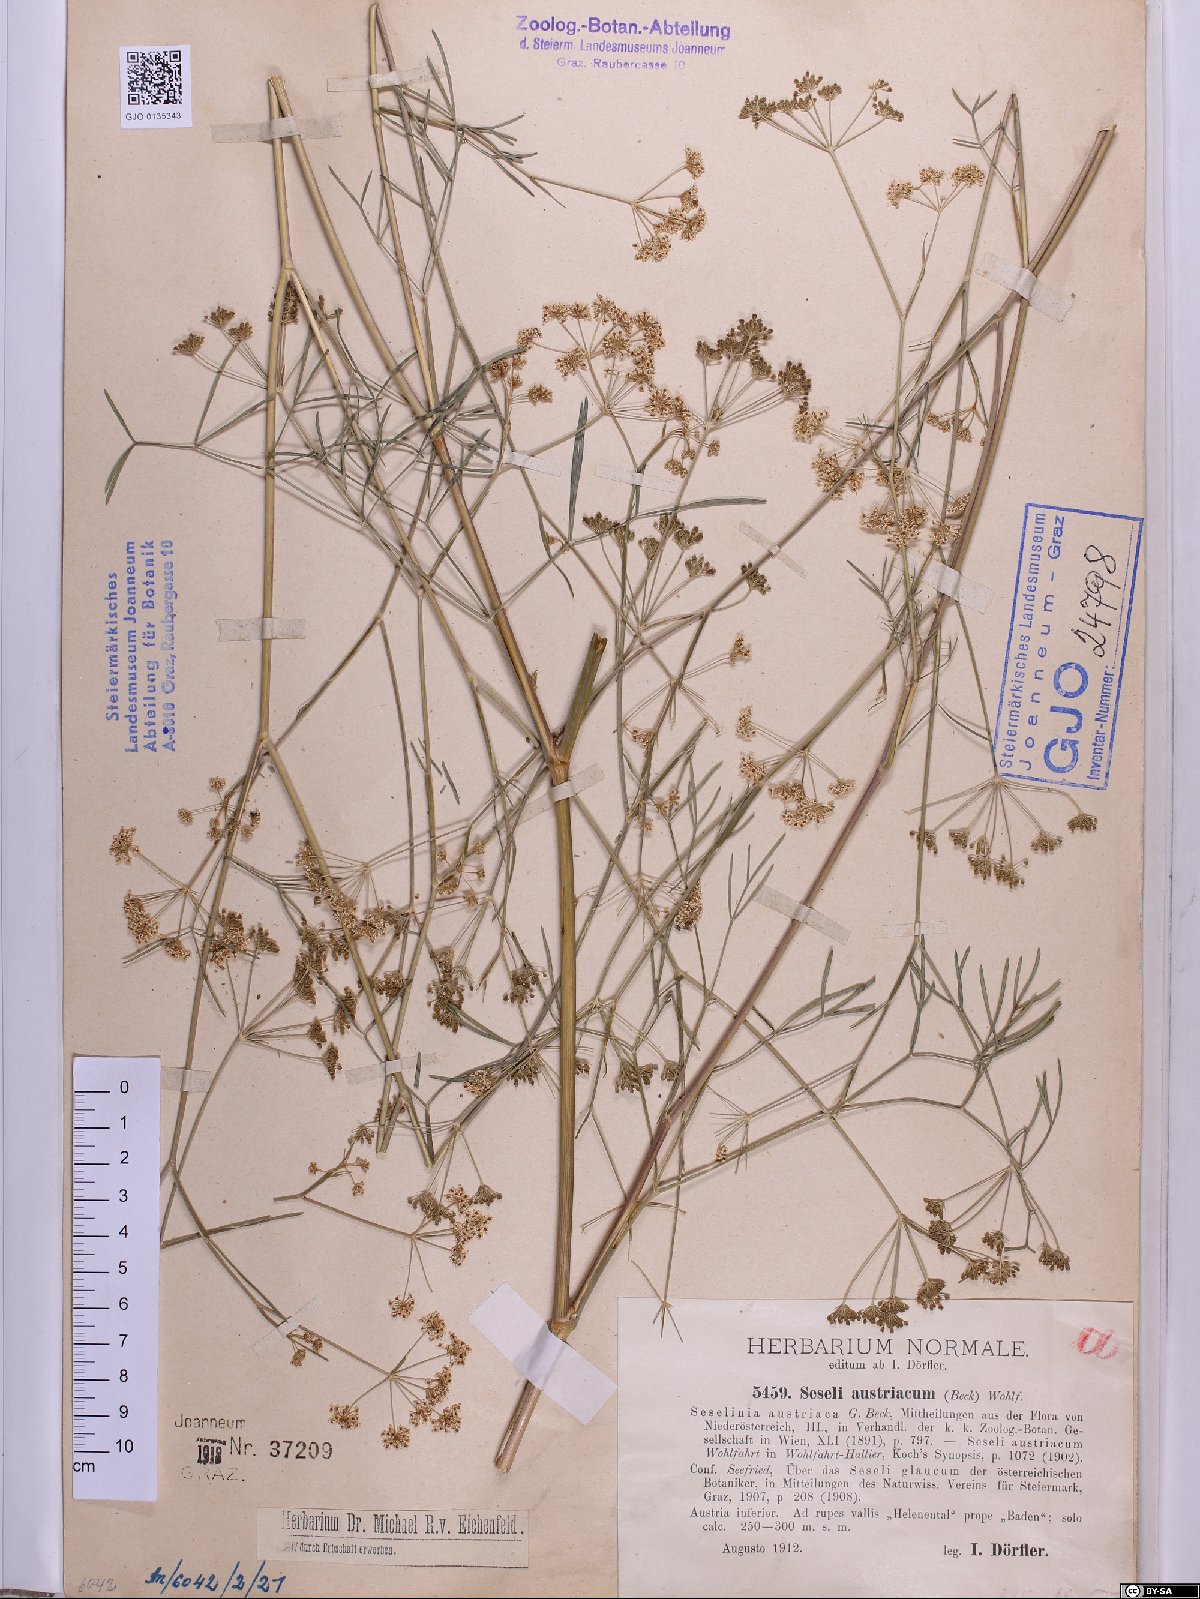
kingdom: Plantae
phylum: Tracheophyta
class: Magnoliopsida
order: Apiales
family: Apiaceae
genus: Seseli
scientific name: Seseli austriacum
